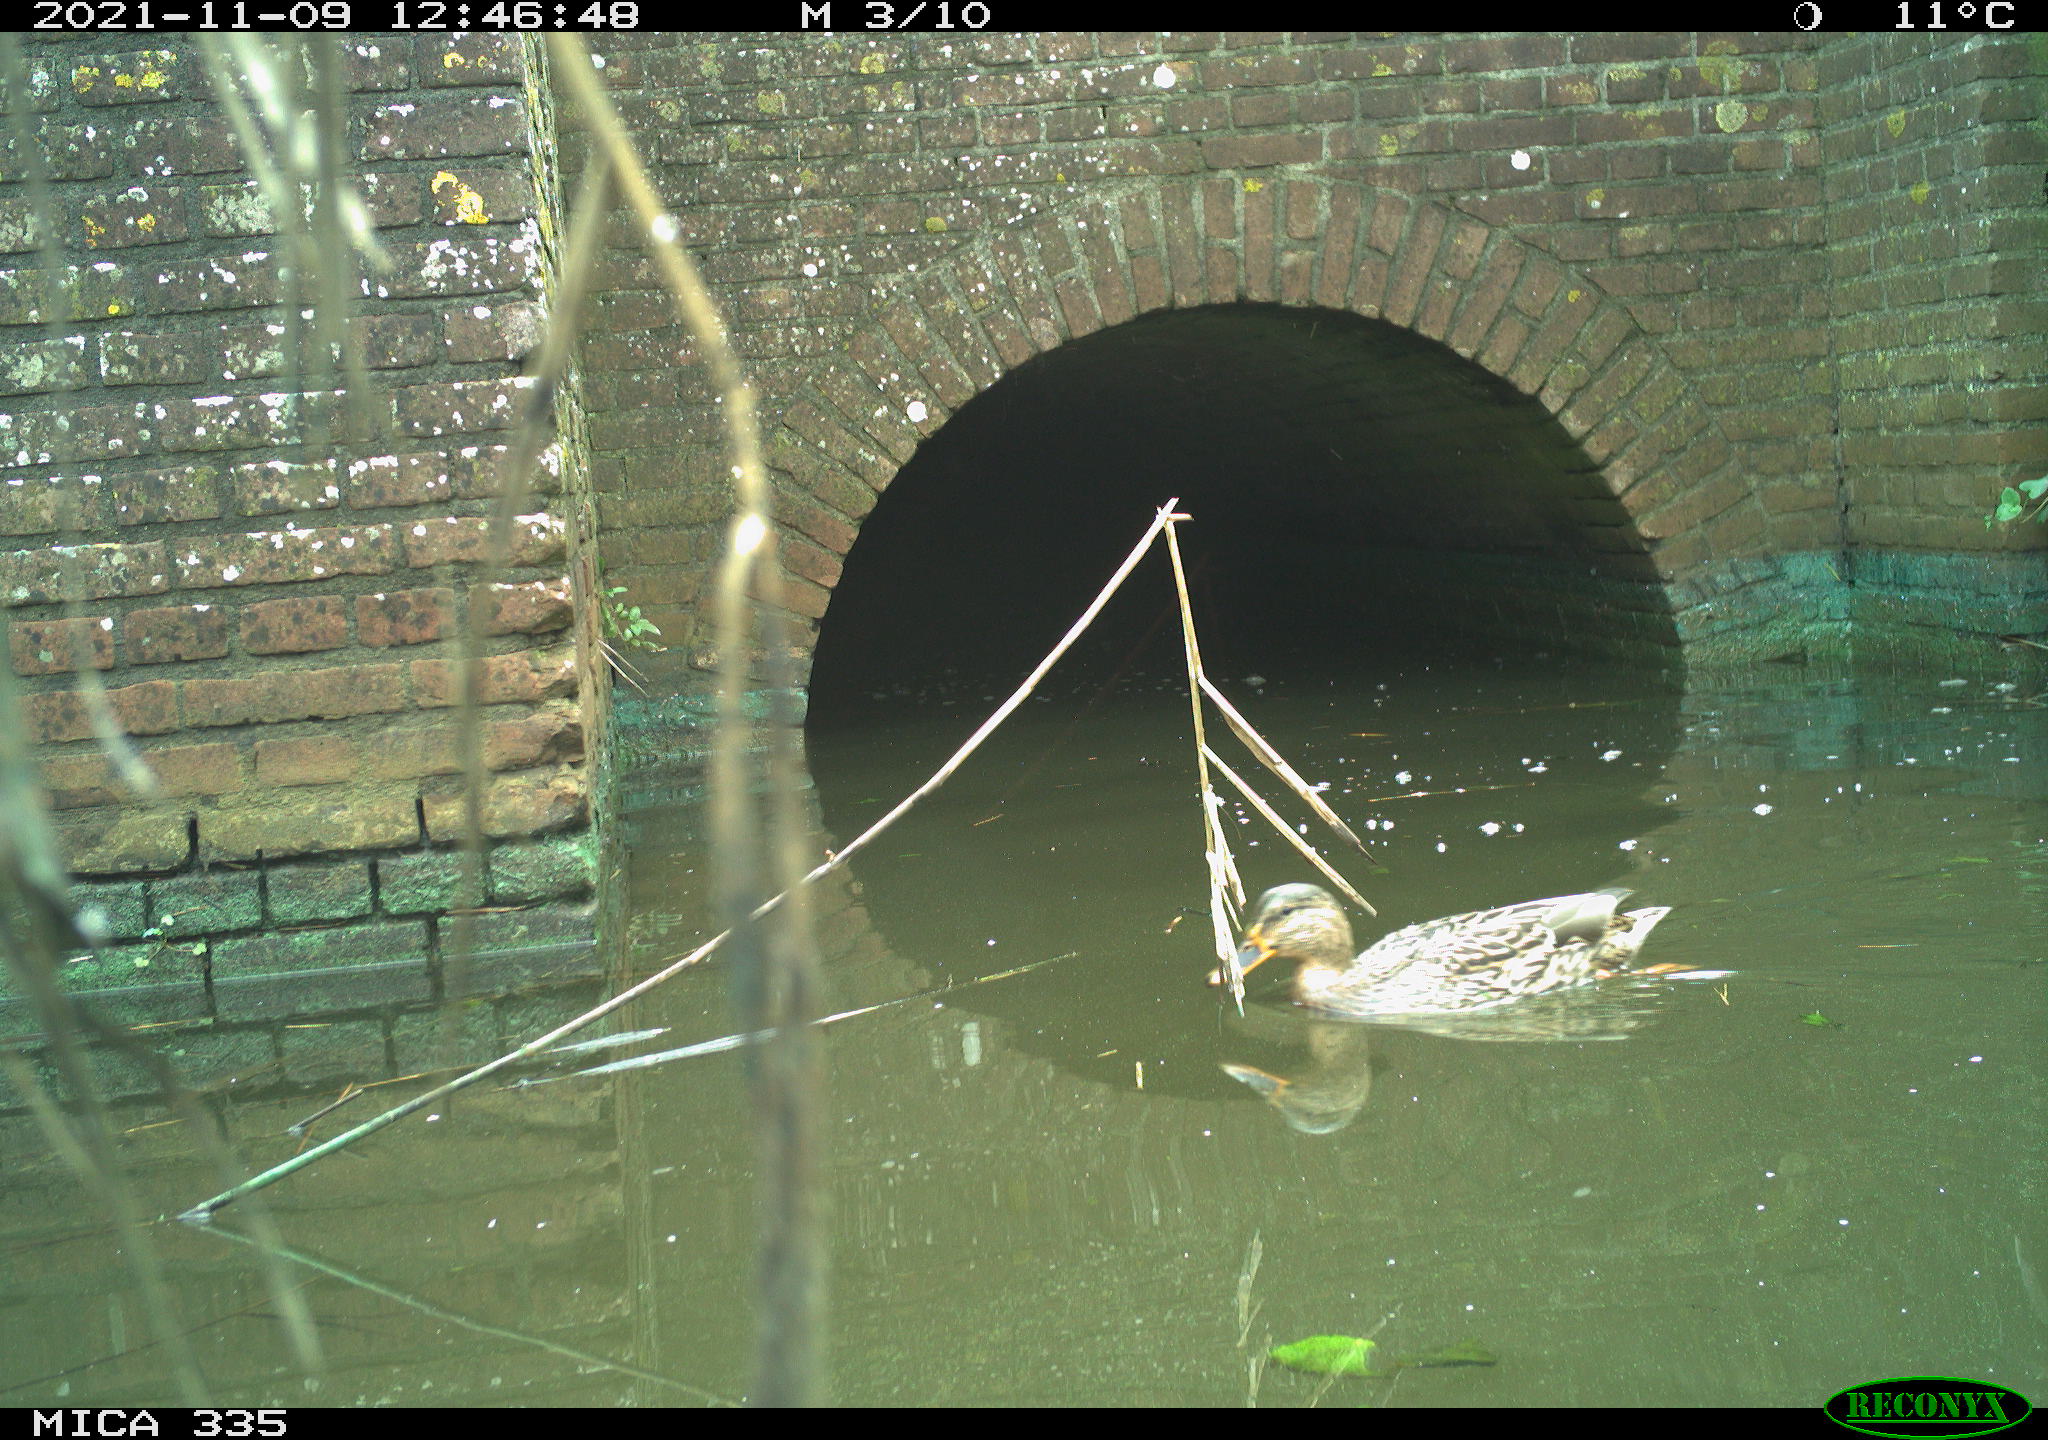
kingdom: Animalia
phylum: Chordata
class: Aves
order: Anseriformes
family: Anatidae
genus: Anas
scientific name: Anas platyrhynchos
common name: Mallard
